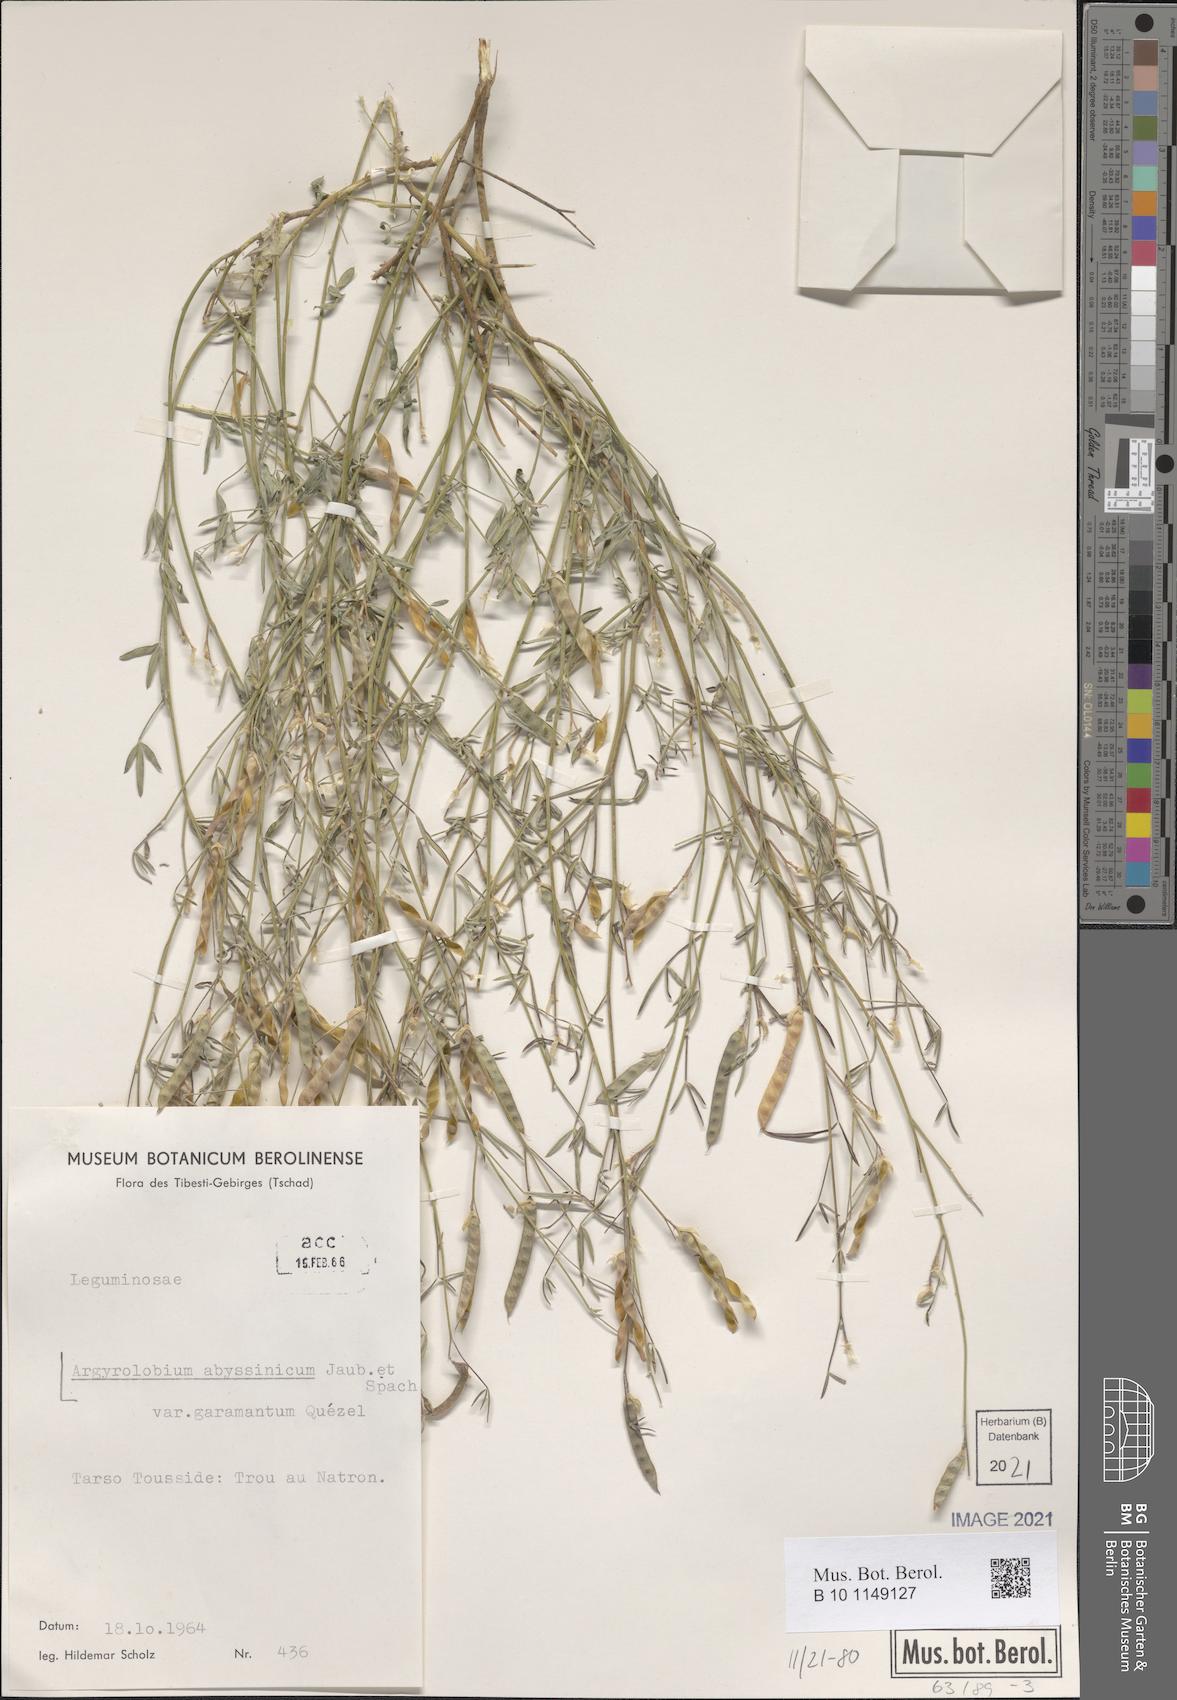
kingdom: Plantae
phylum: Tracheophyta
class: Magnoliopsida
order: Fabales
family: Fabaceae
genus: Argyrolobium
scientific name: Argyrolobium arabicum
